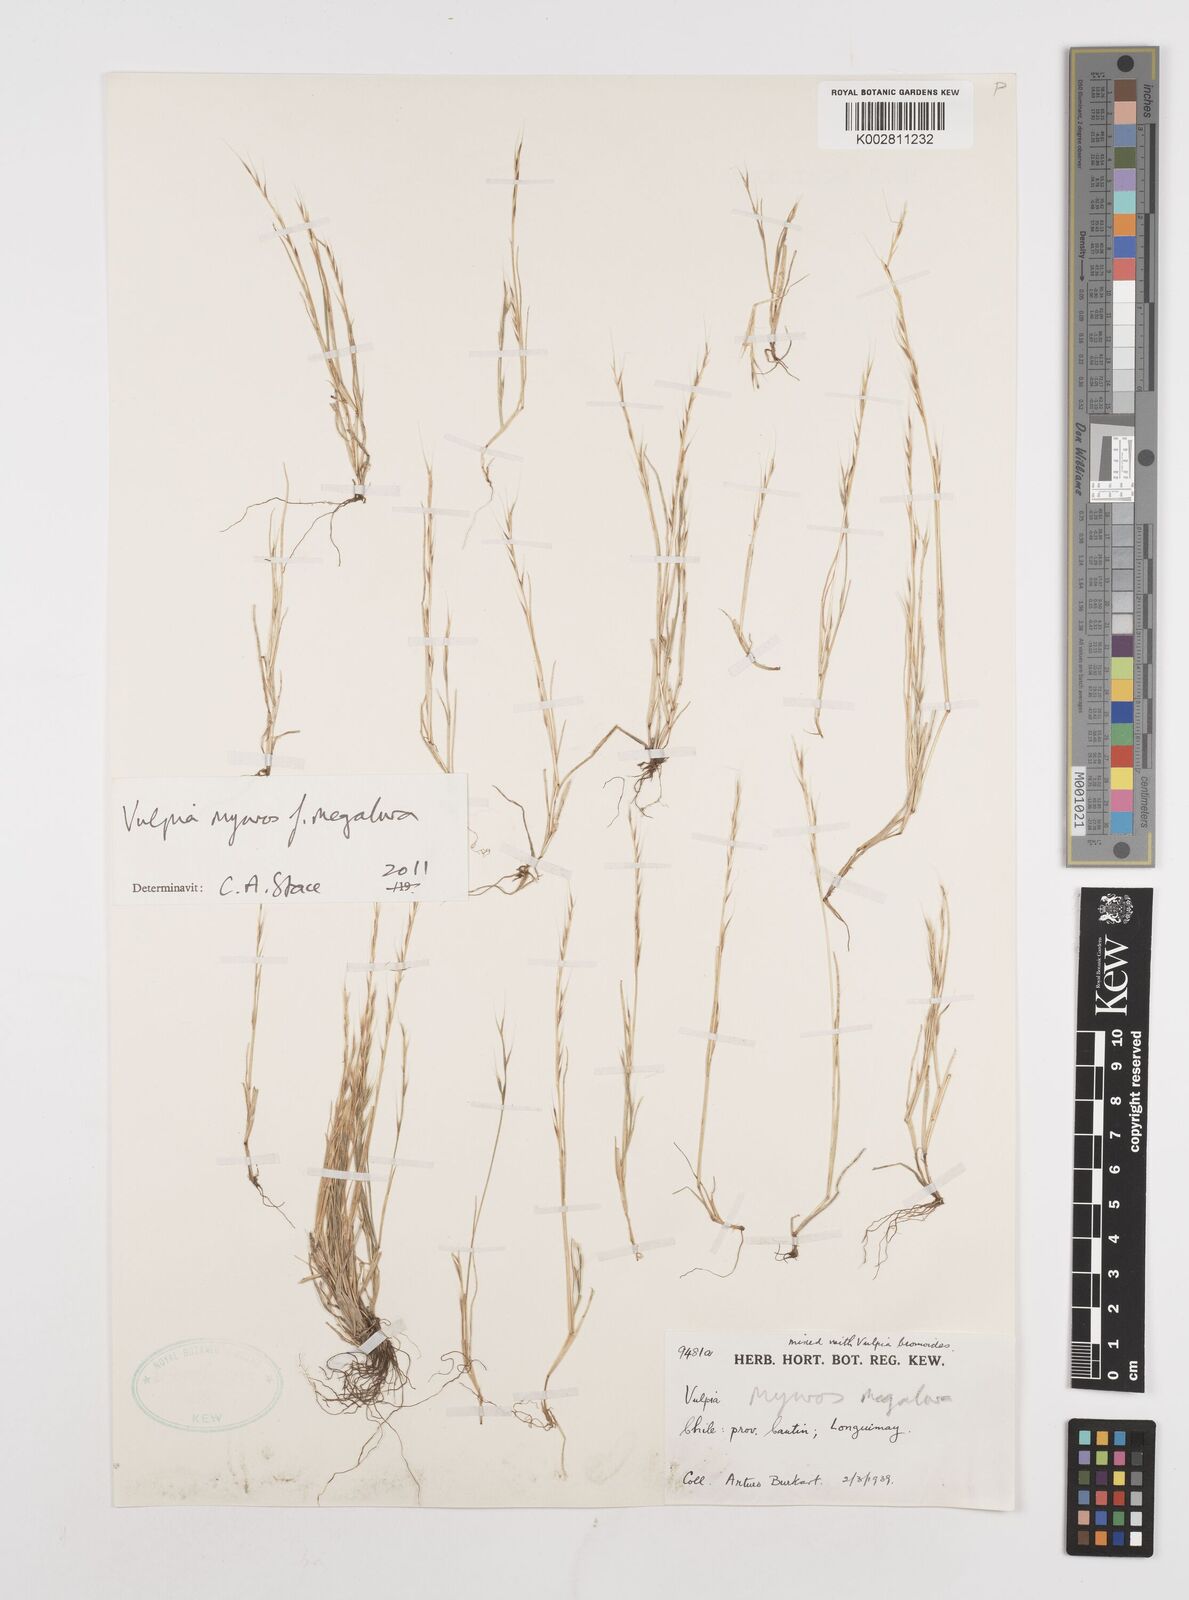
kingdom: Plantae
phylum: Tracheophyta
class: Liliopsida
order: Poales
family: Poaceae
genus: Festuca
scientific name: Festuca myuros
